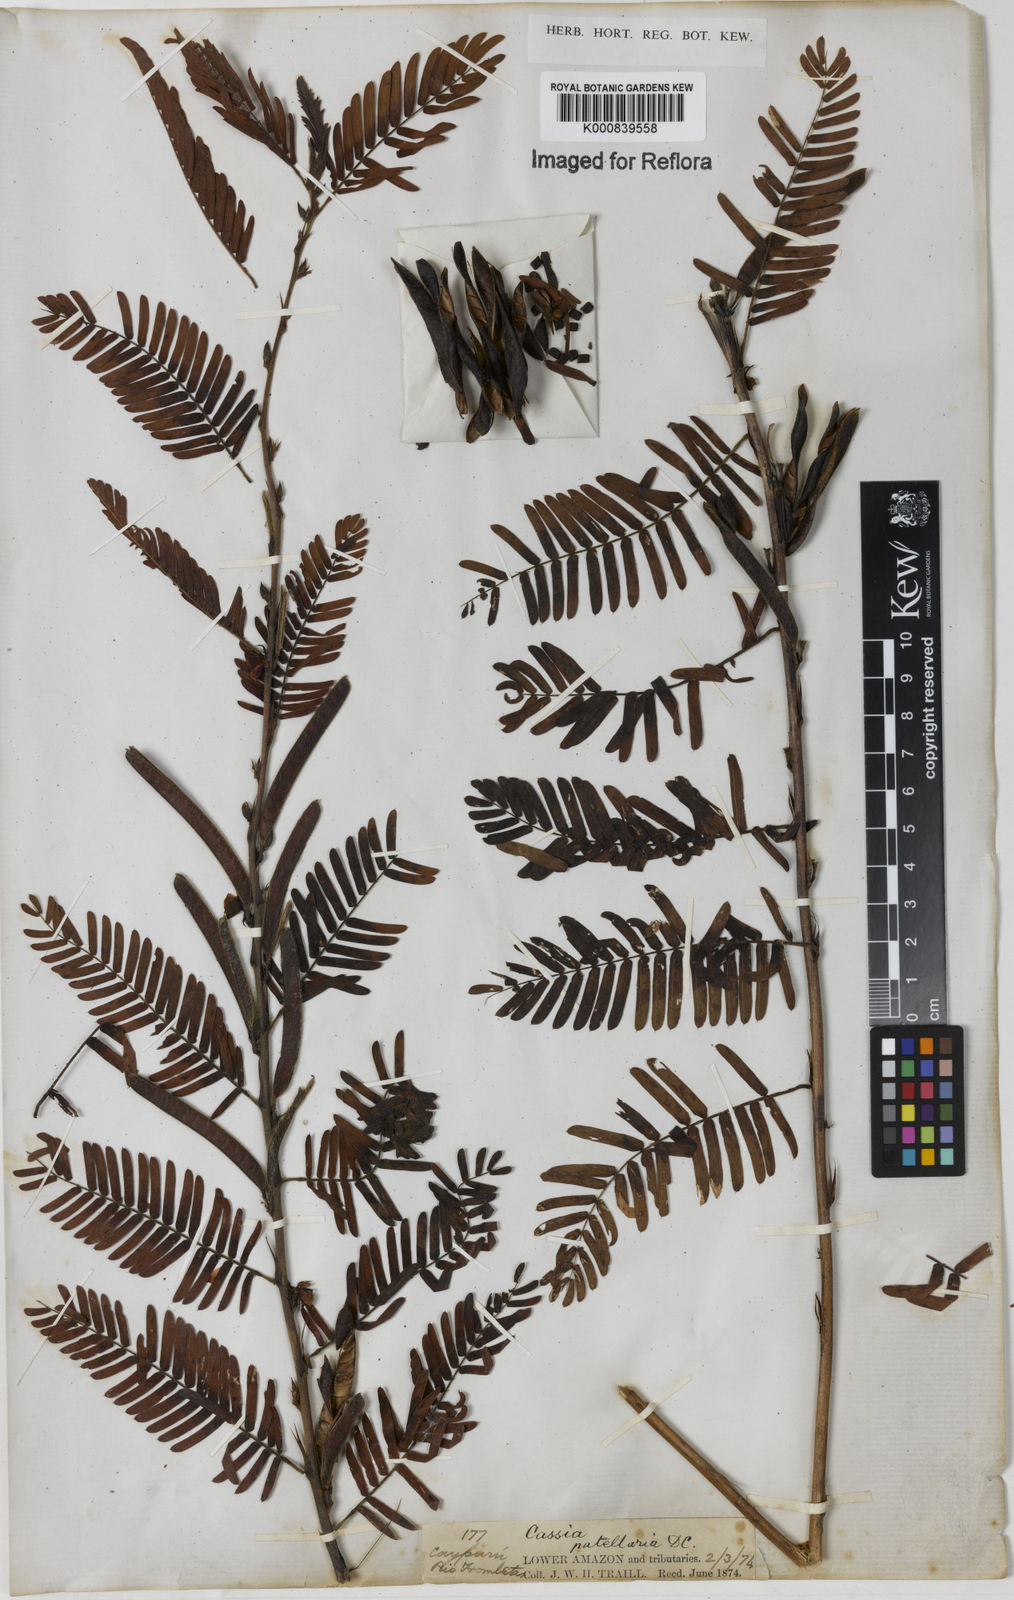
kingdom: Plantae
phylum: Tracheophyta
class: Magnoliopsida
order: Fabales
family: Fabaceae
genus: Chamaecrista
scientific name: Chamaecrista nictitans
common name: Sensitive cassia
